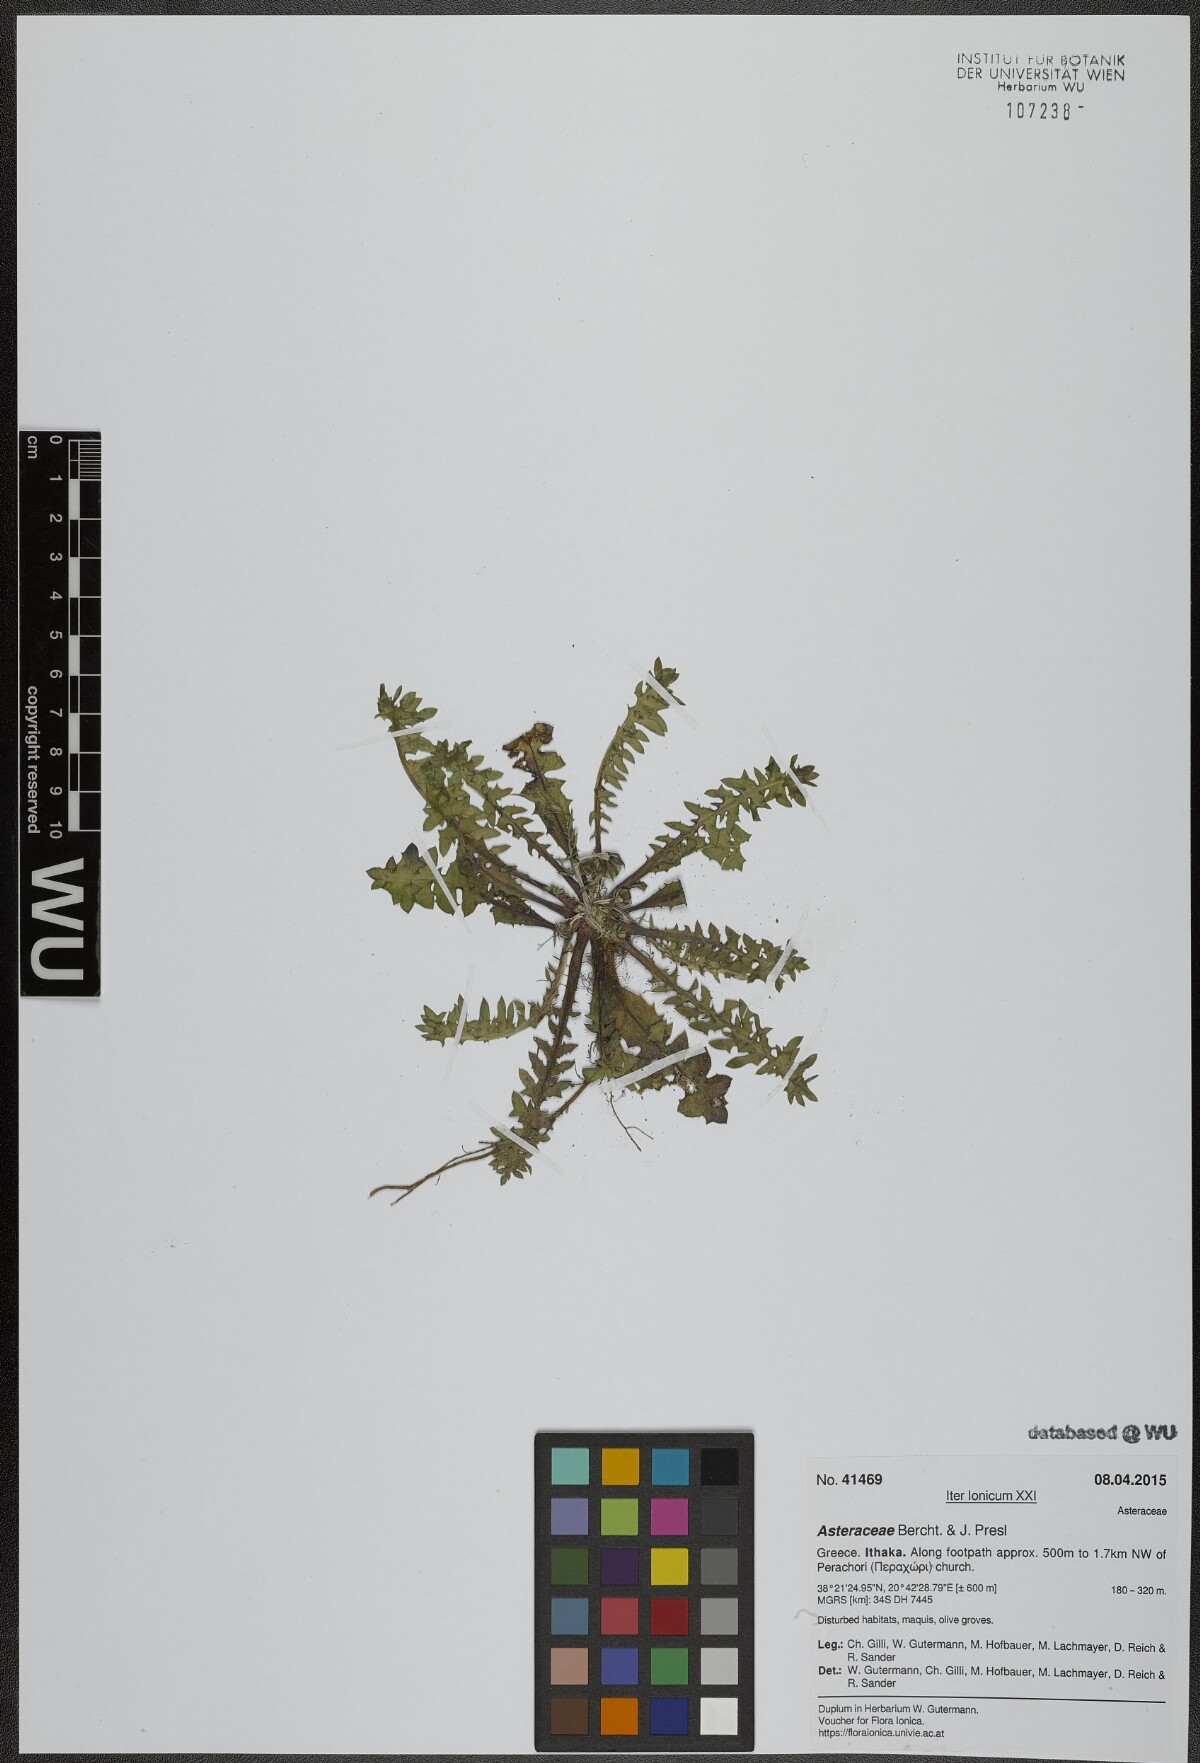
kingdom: Plantae
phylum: Tracheophyta
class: Magnoliopsida
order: Asterales
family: Asteraceae
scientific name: Asteraceae
